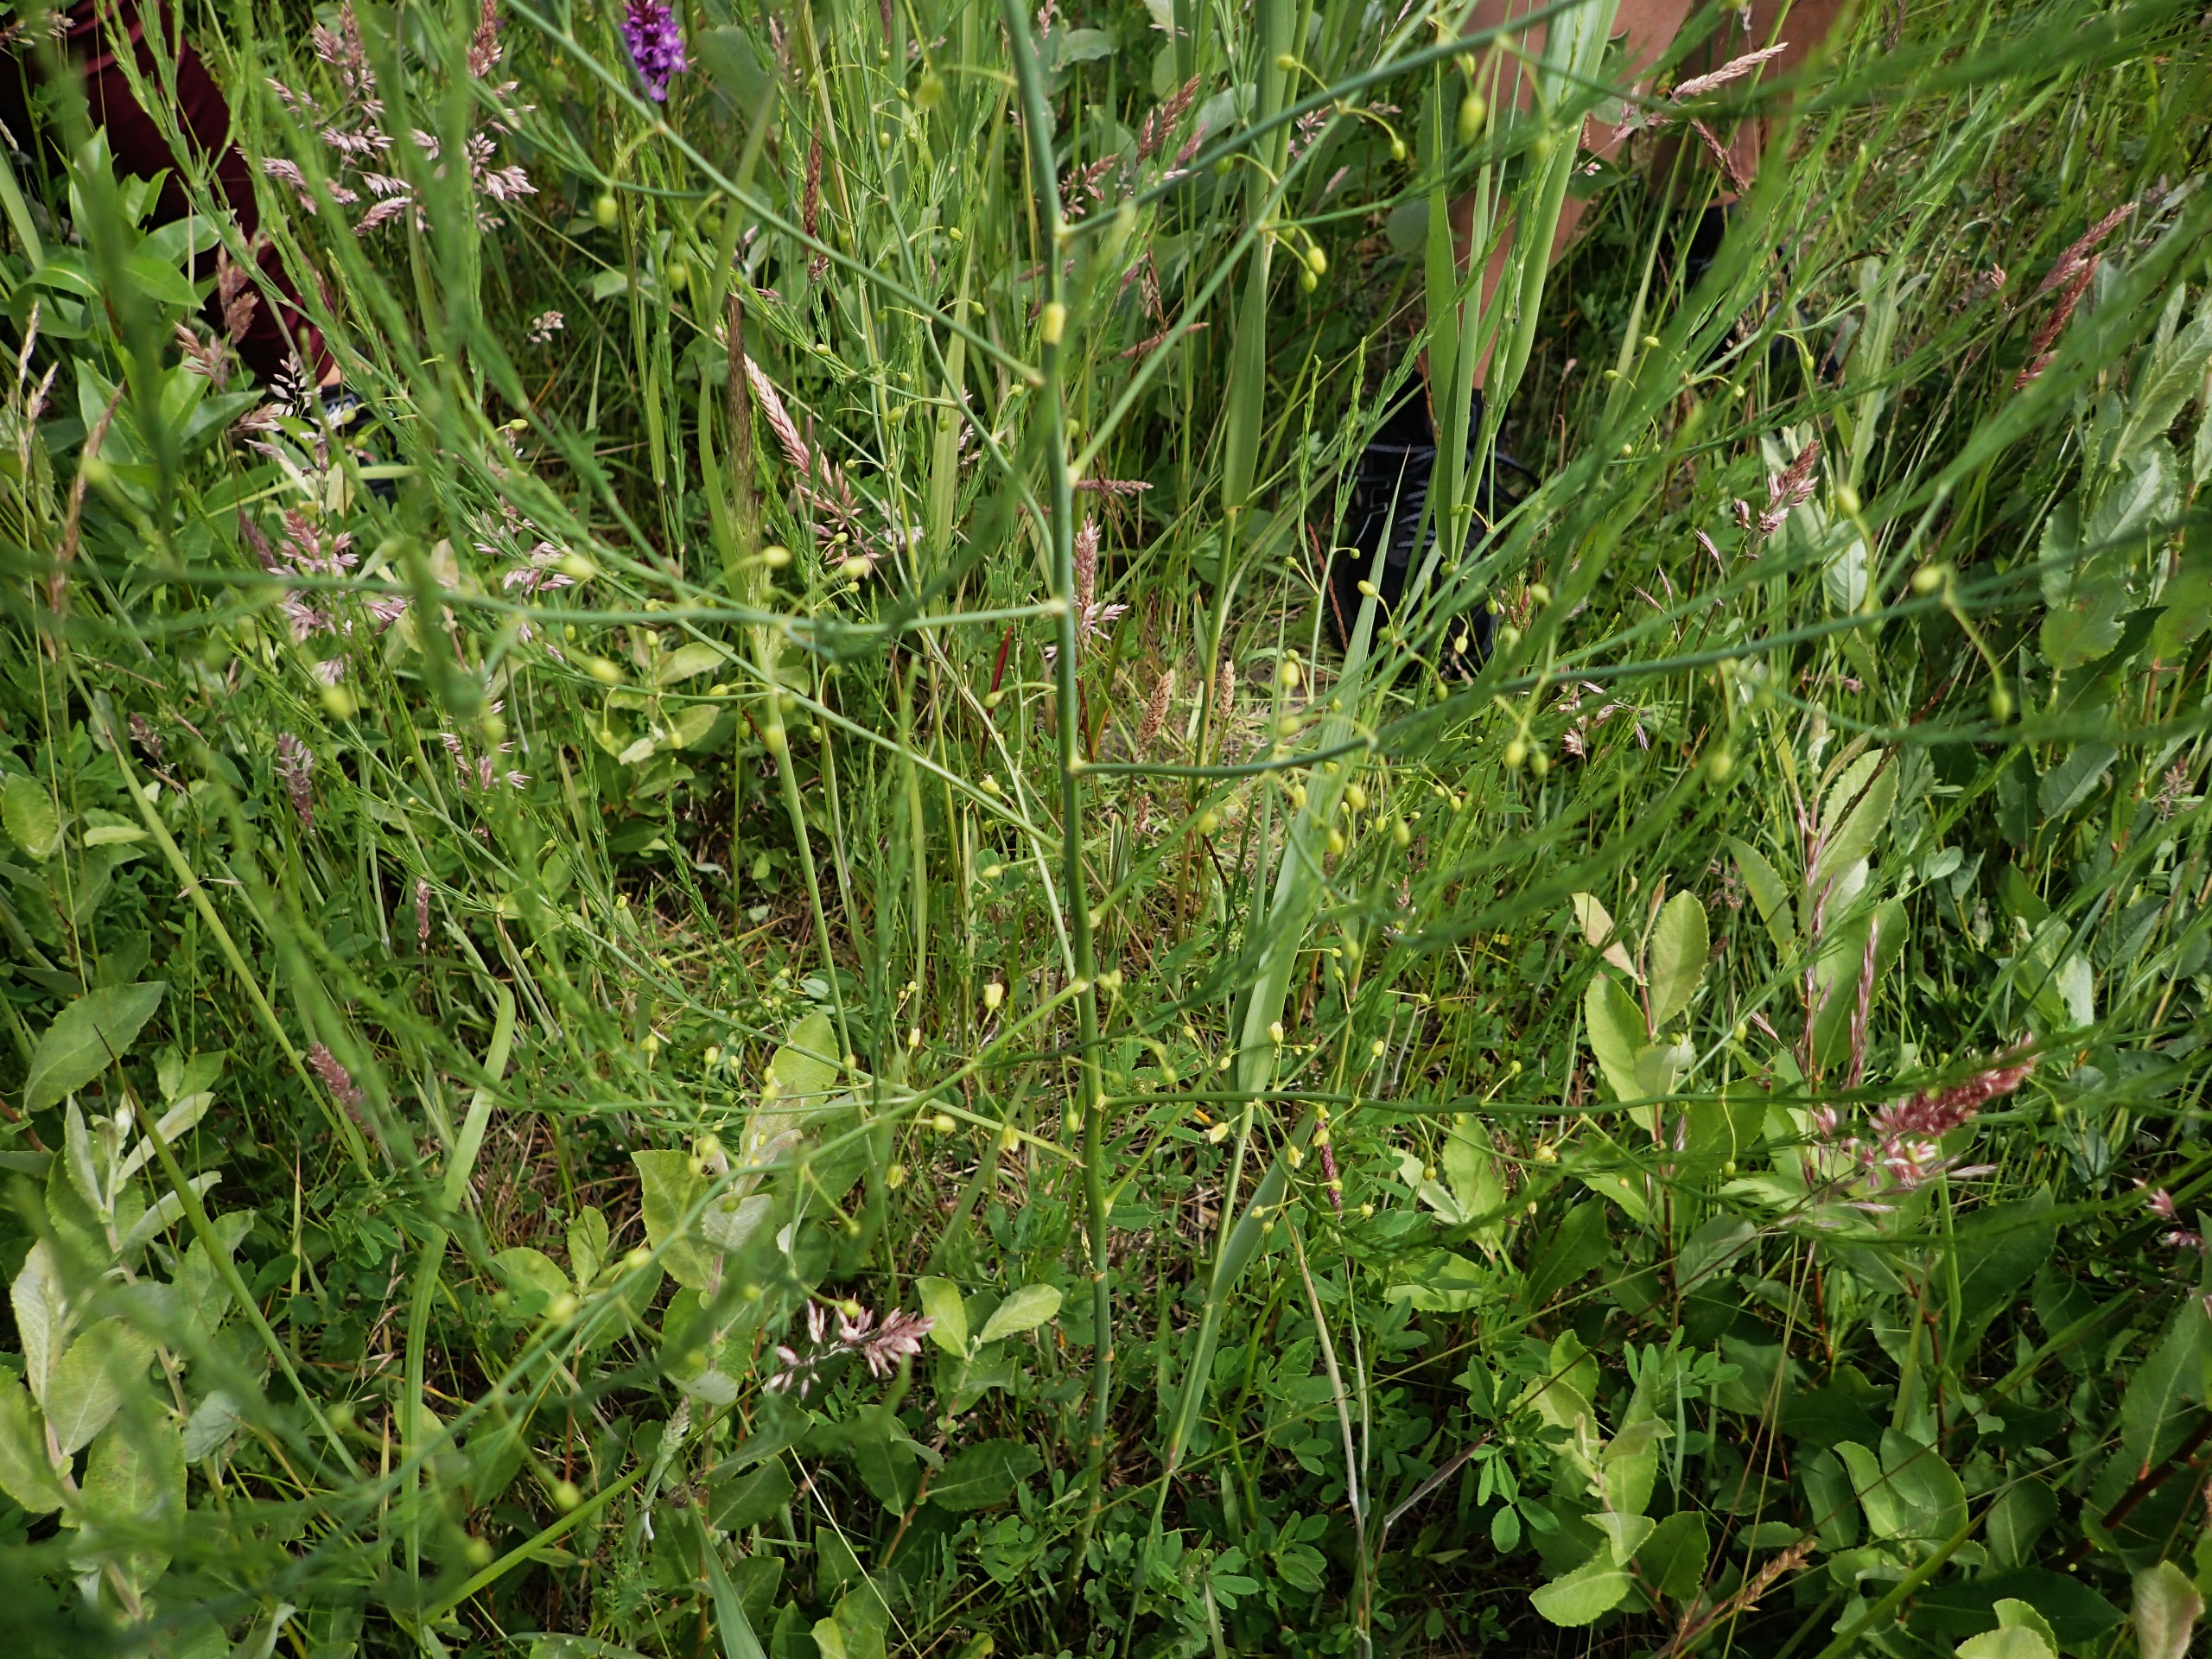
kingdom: Plantae
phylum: Tracheophyta
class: Liliopsida
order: Asparagales
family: Asparagaceae
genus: Asparagus
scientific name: Asparagus officinalis
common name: Asparges
